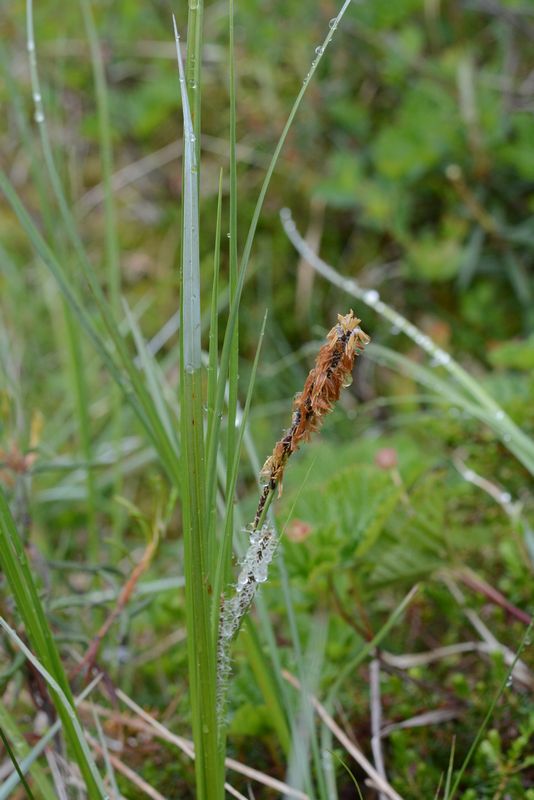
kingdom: Plantae
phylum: Tracheophyta
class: Liliopsida
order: Poales
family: Cyperaceae
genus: Carex
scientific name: Carex aquatilis
